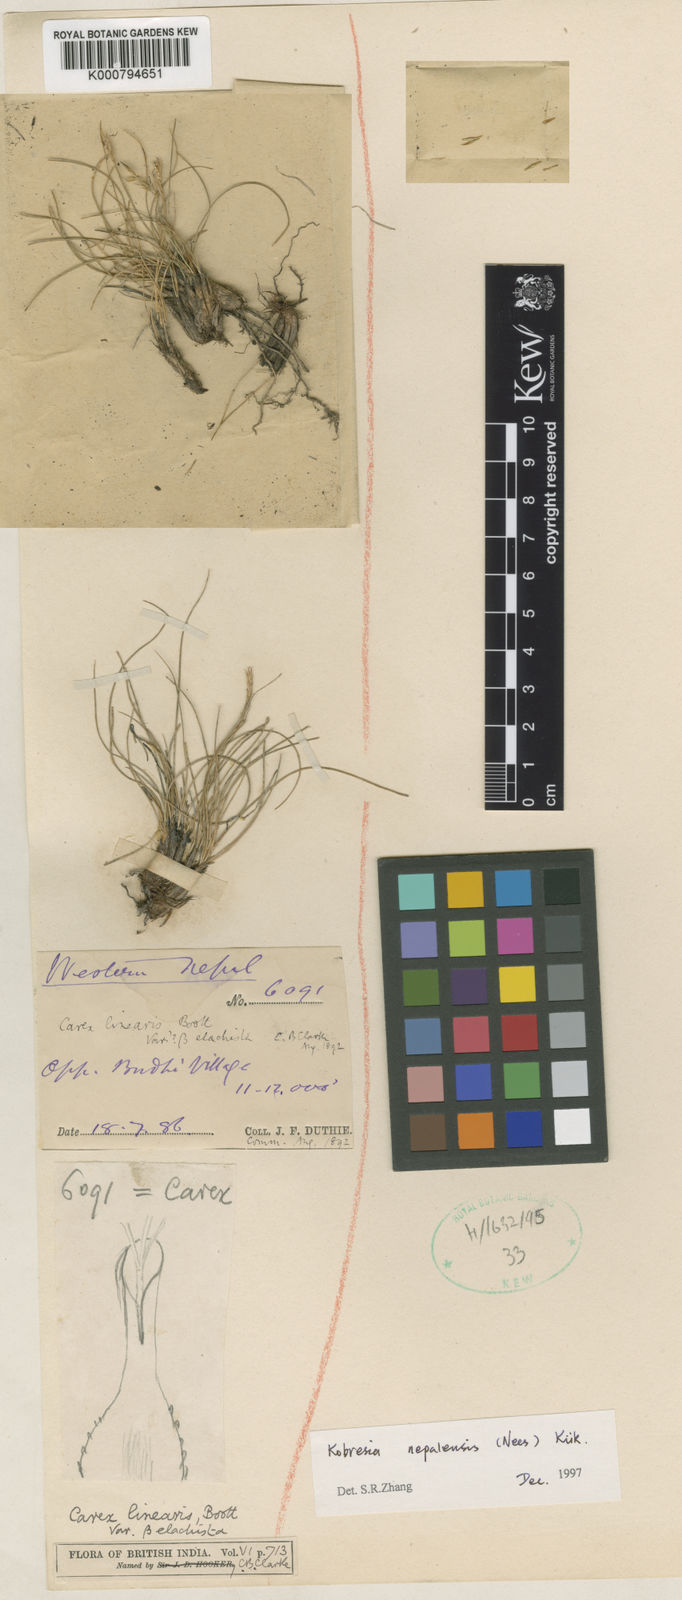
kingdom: Plantae
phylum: Tracheophyta
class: Liliopsida
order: Poales
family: Cyperaceae
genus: Carex
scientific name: Carex
